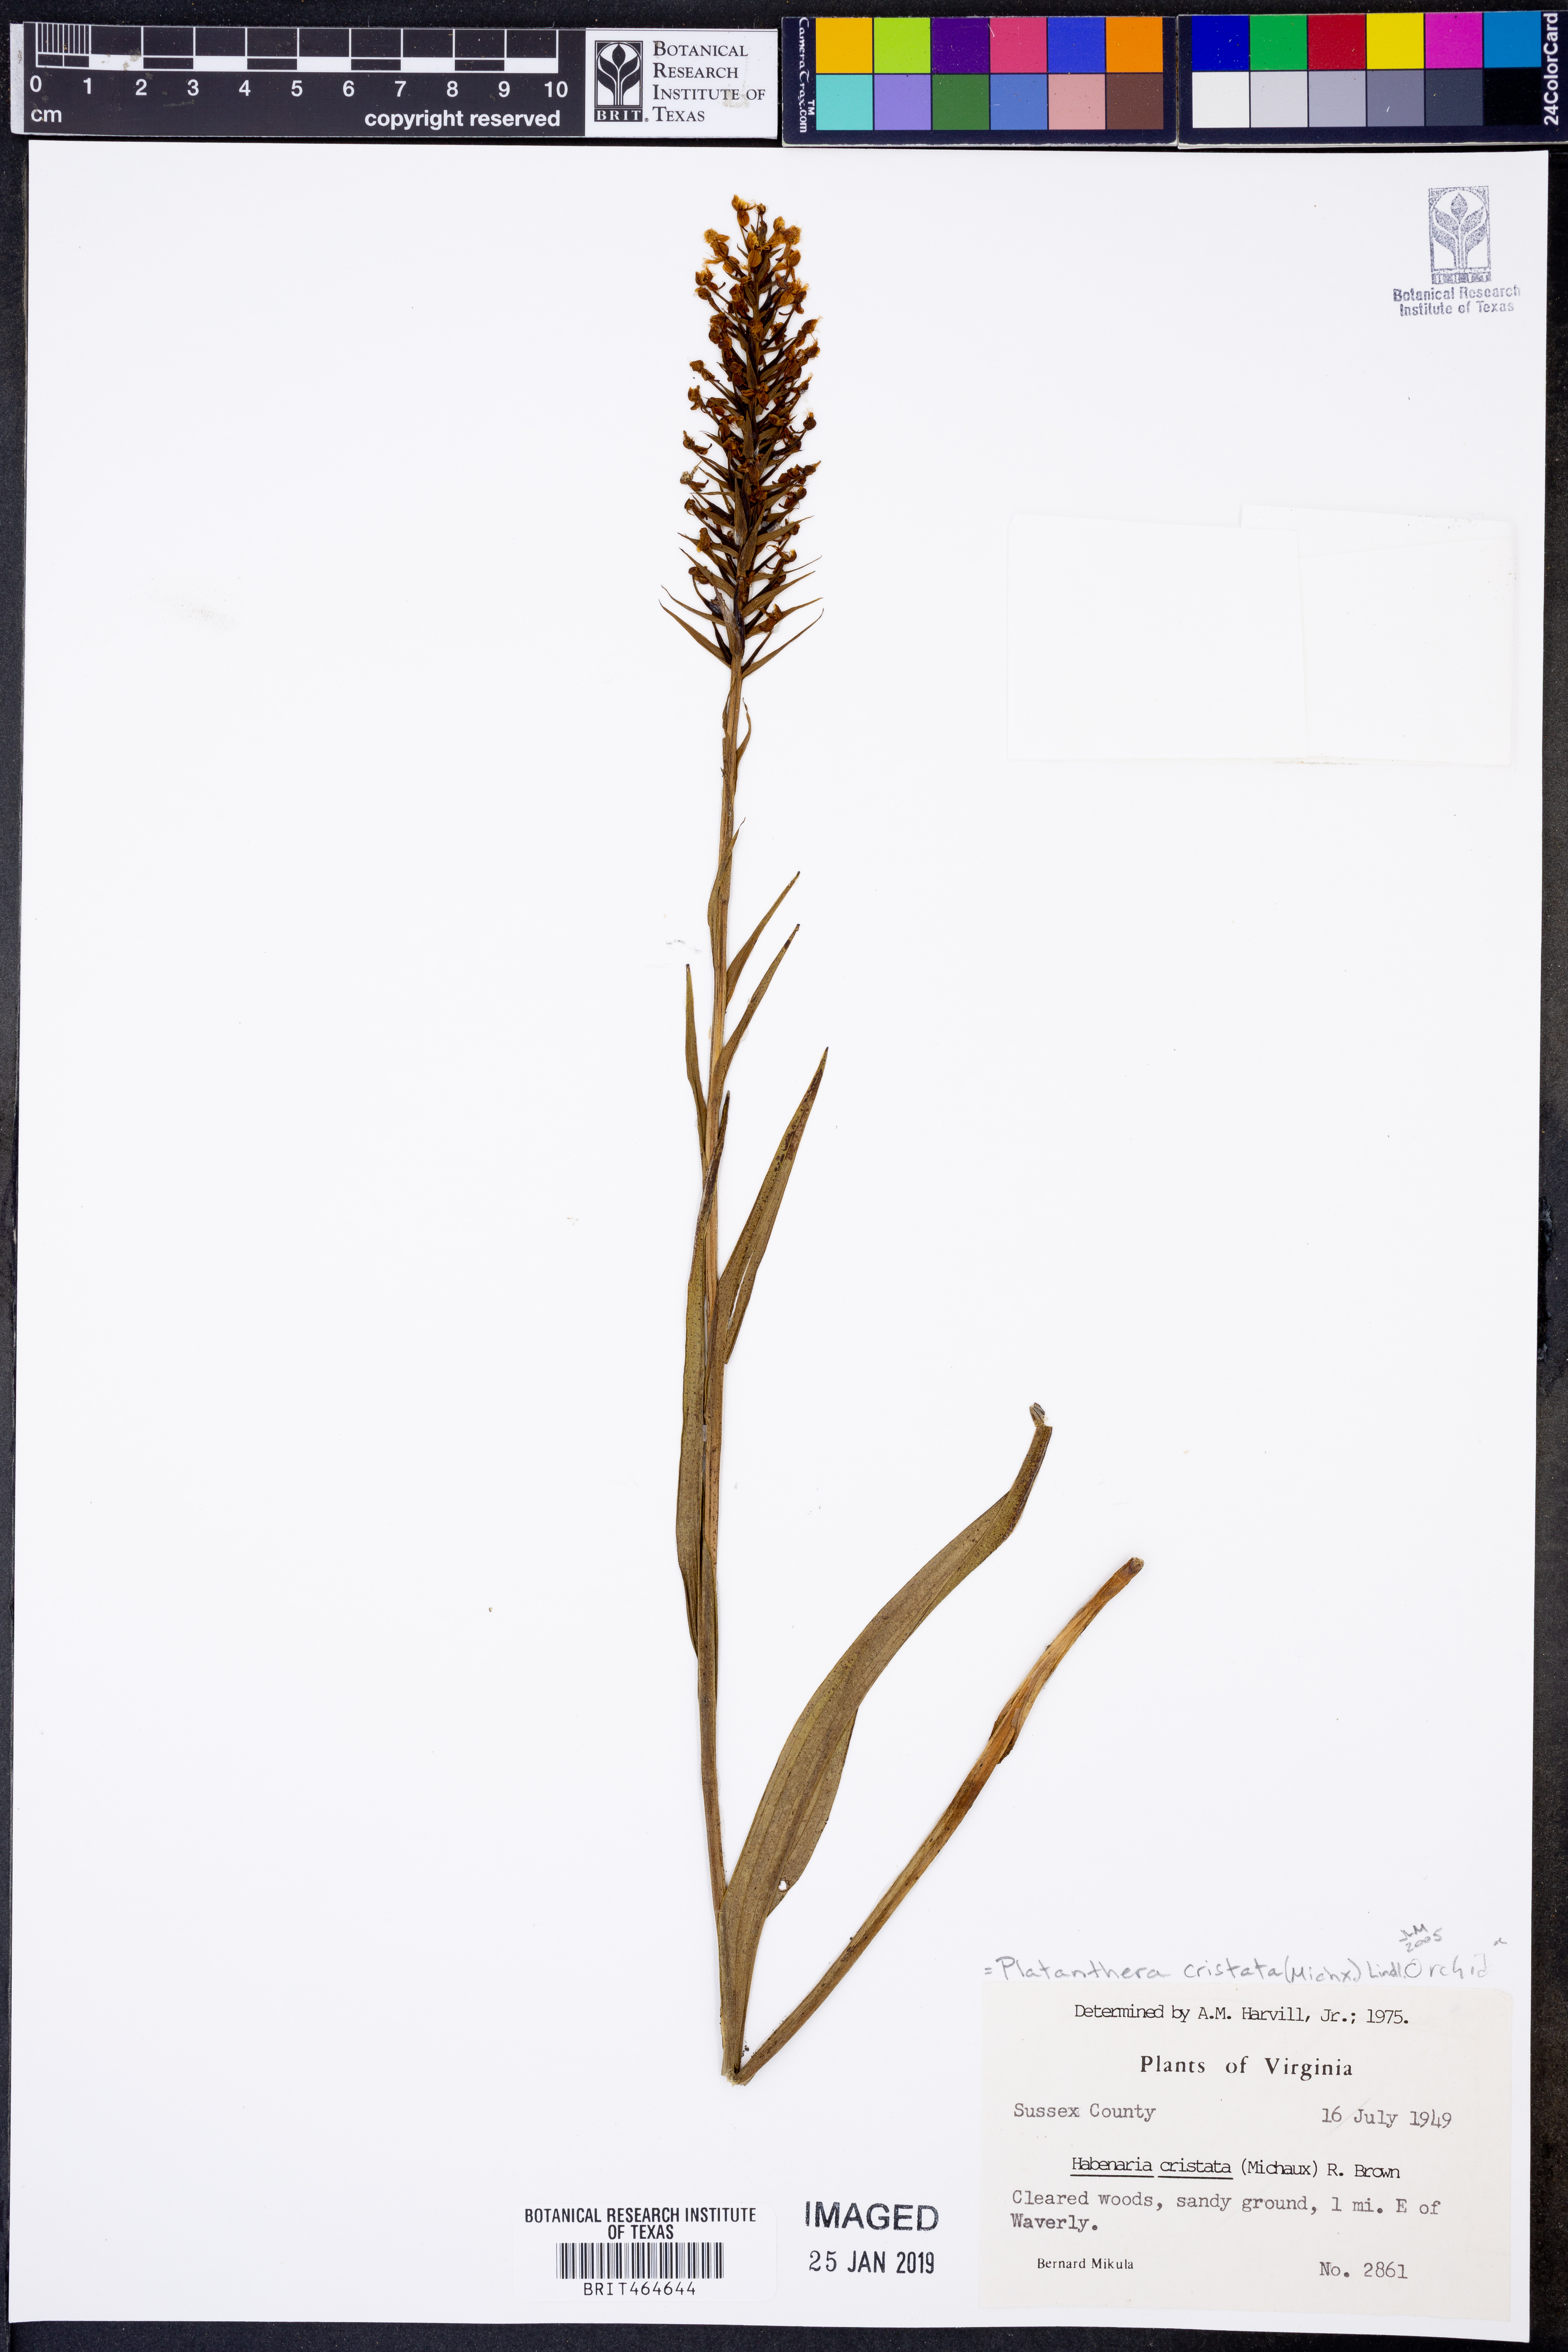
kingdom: Plantae
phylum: Tracheophyta
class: Liliopsida
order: Asparagales
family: Orchidaceae
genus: Platanthera
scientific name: Platanthera cristata
